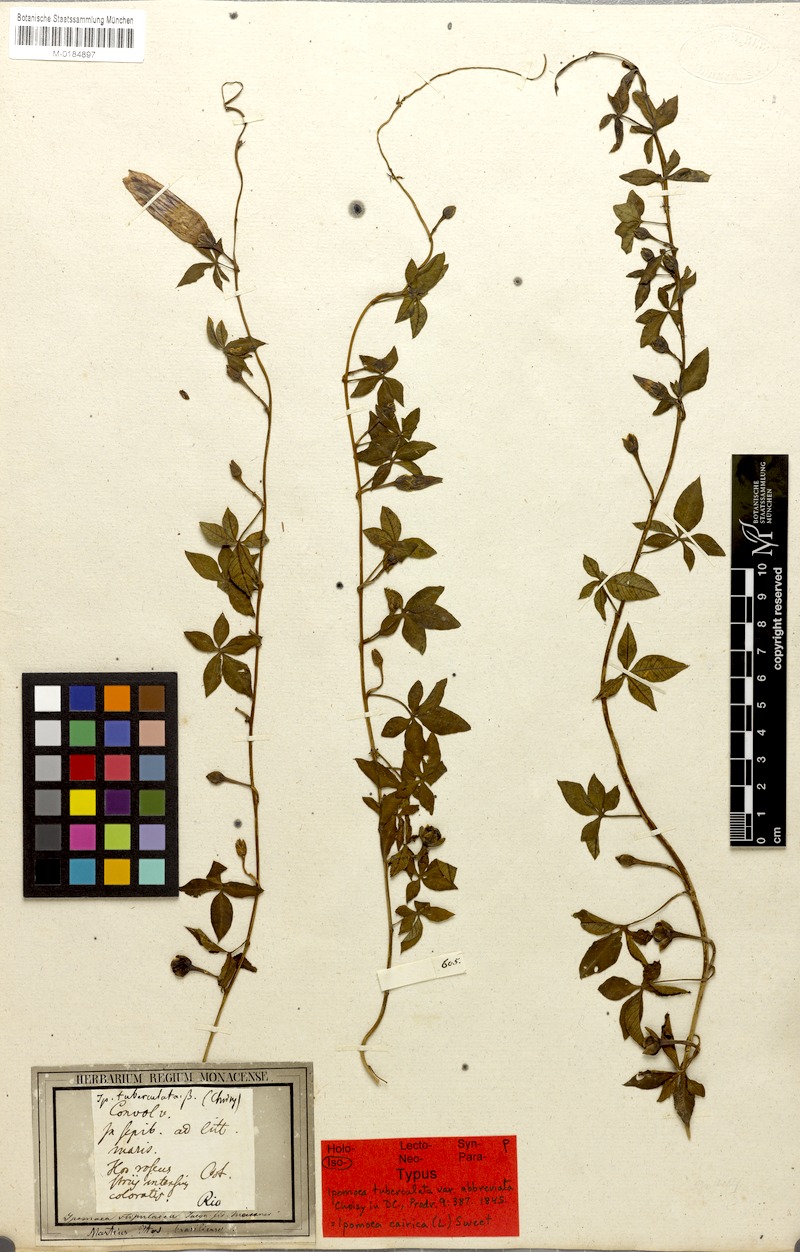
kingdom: Plantae
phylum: Tracheophyta
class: Magnoliopsida
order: Solanales
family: Convolvulaceae
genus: Ipomoea
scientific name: Ipomoea cairica
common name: Mile a minute vine
